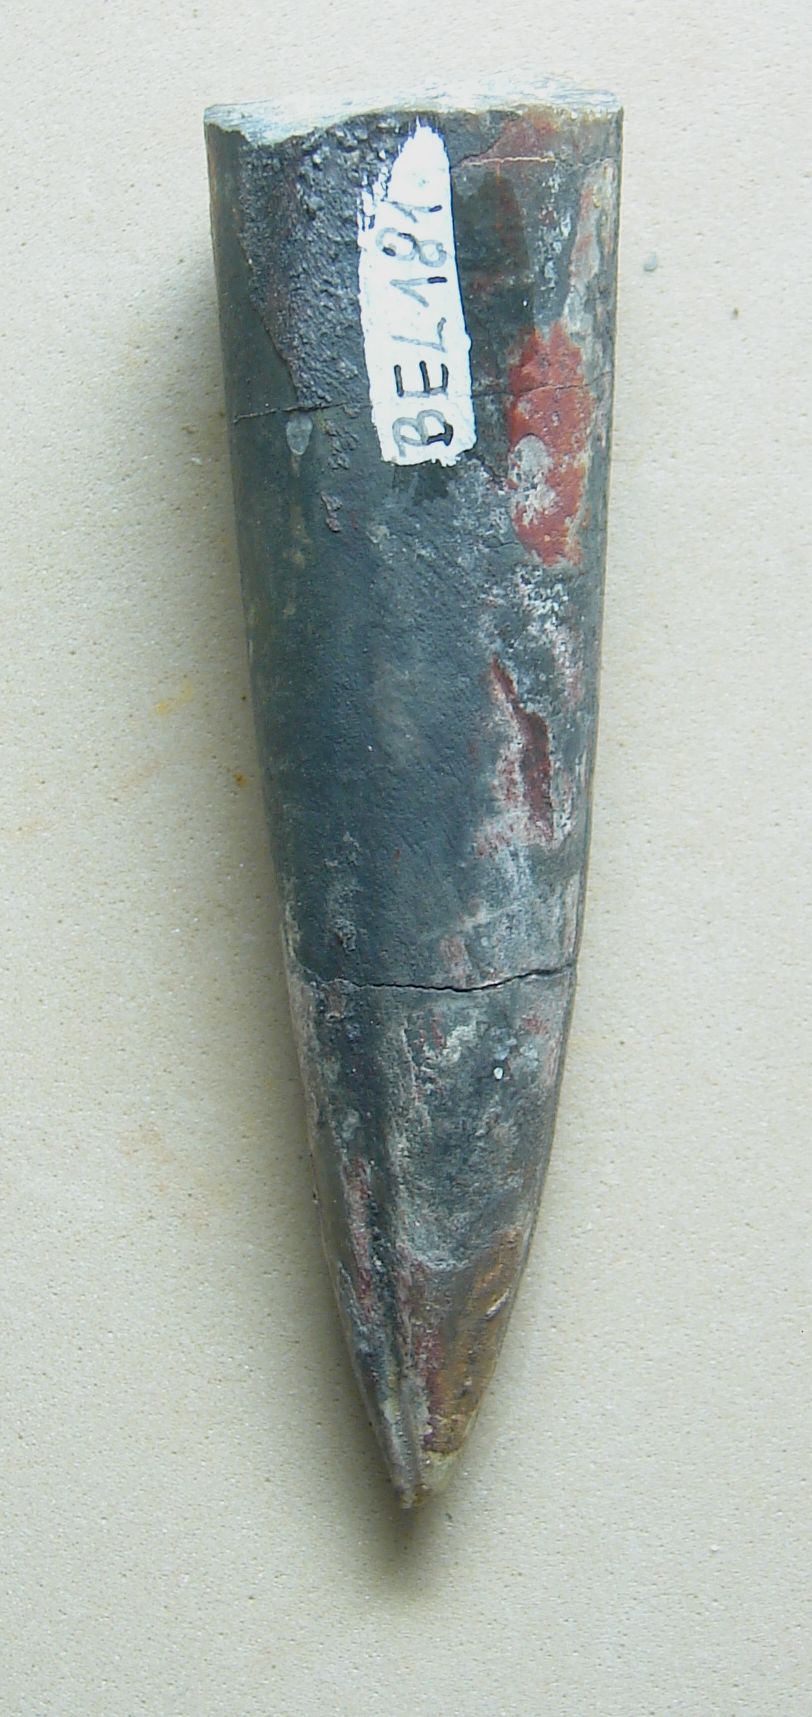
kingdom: Animalia
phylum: Mollusca
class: Cephalopoda
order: Belemnitida
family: Megateuthididae
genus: Acrocoelites
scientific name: Acrocoelites conoideus
